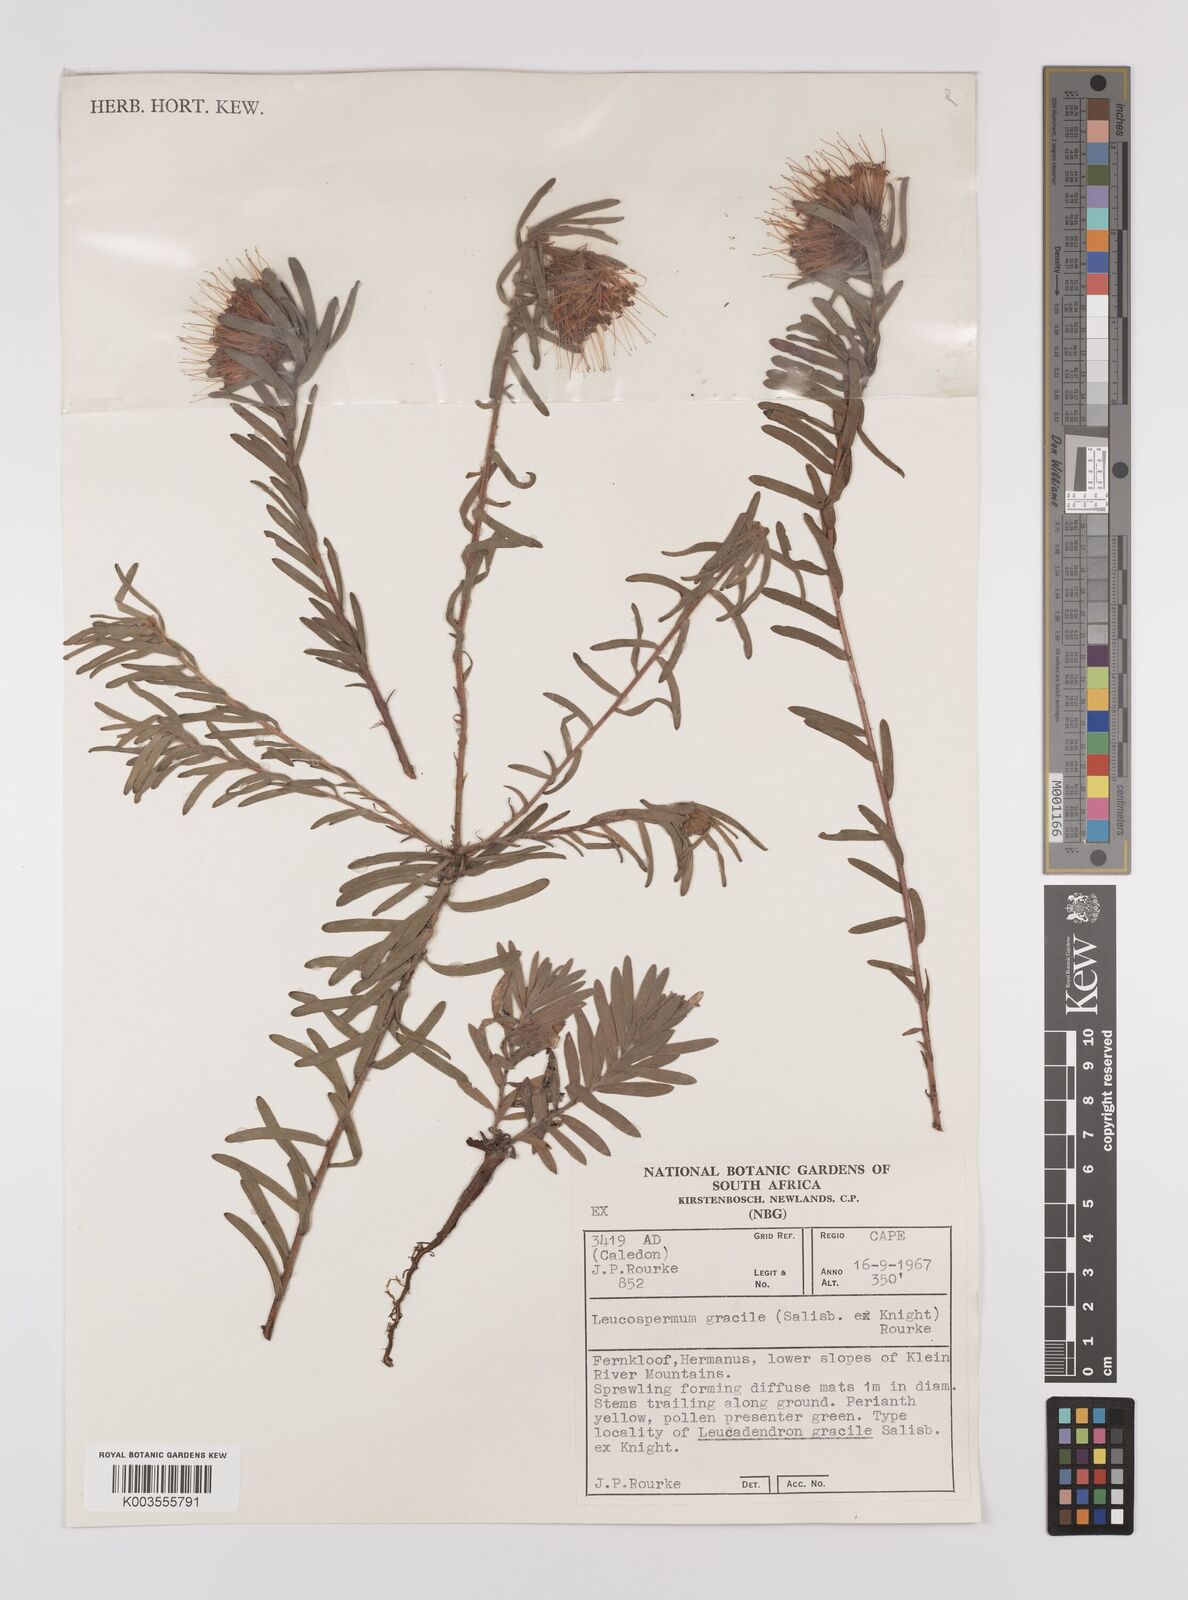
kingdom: Plantae
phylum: Tracheophyta
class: Magnoliopsida
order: Proteales
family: Proteaceae
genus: Leucospermum
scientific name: Leucospermum gracile
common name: Hermanus pincushion
